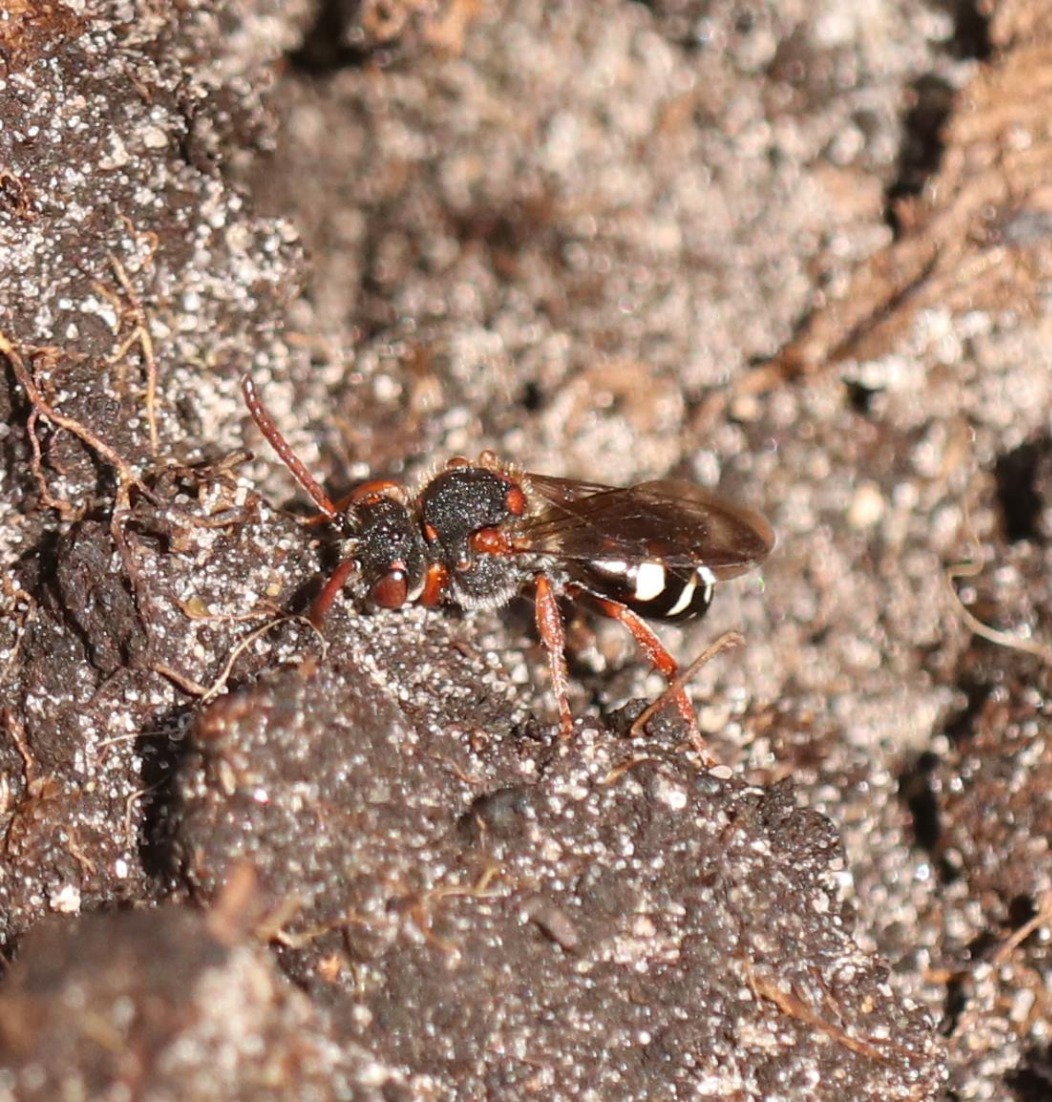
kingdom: Animalia
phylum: Arthropoda
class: Insecta
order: Hymenoptera
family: Apidae
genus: Nomada
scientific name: Nomada obscura
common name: Lille pilehvepsebi
